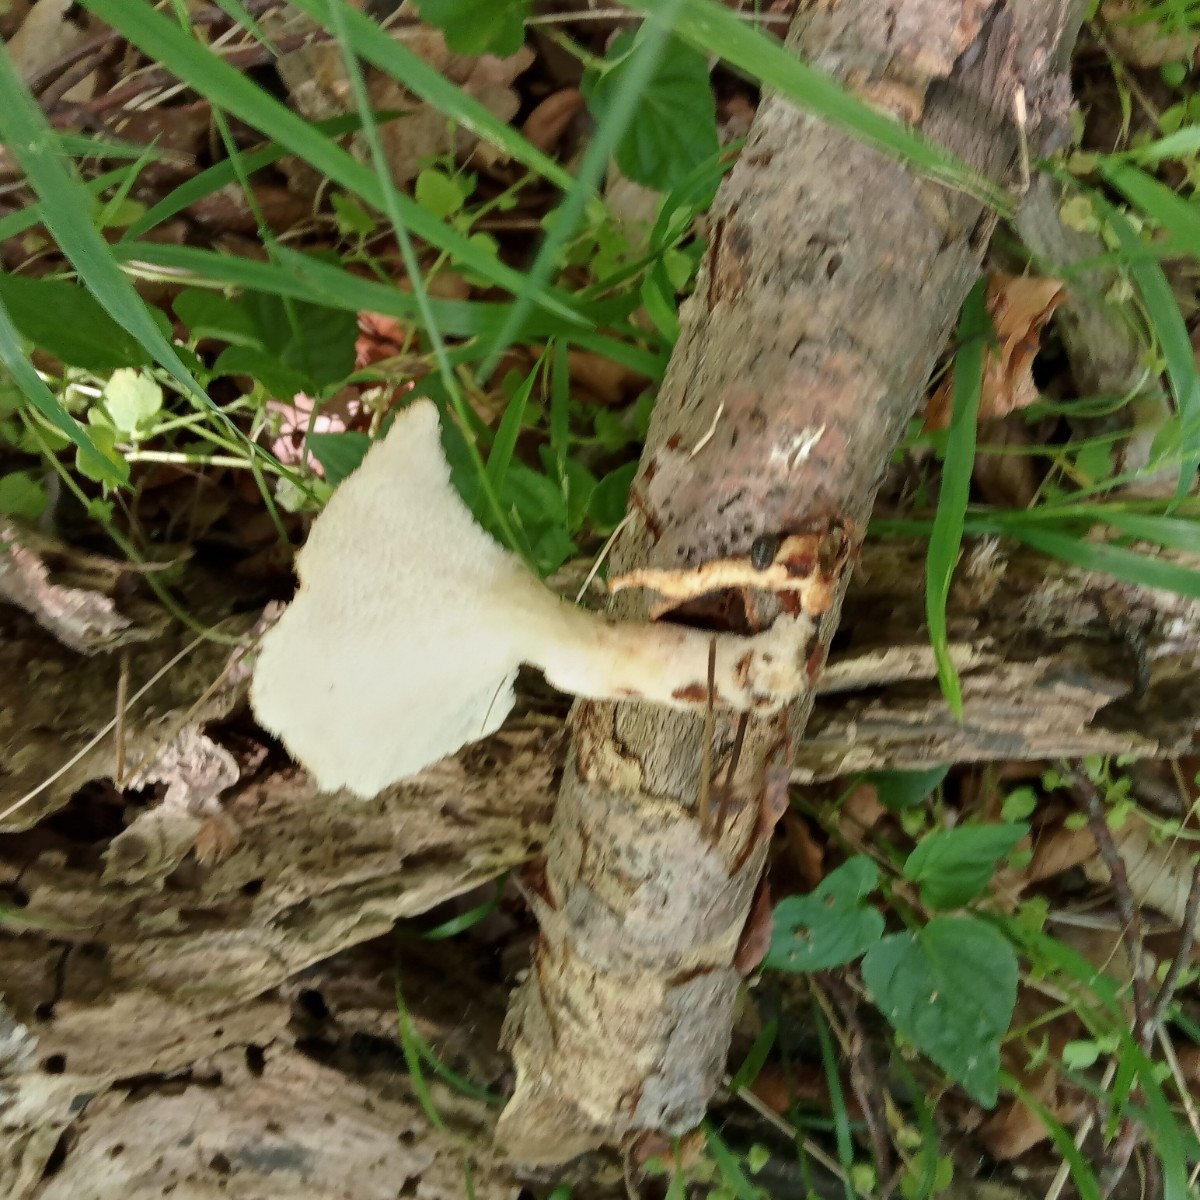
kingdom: Fungi
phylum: Basidiomycota
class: Agaricomycetes
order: Polyporales
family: Polyporaceae
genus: Polyporus
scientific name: Polyporus tuberaster
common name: knoldet stilkporesvamp
